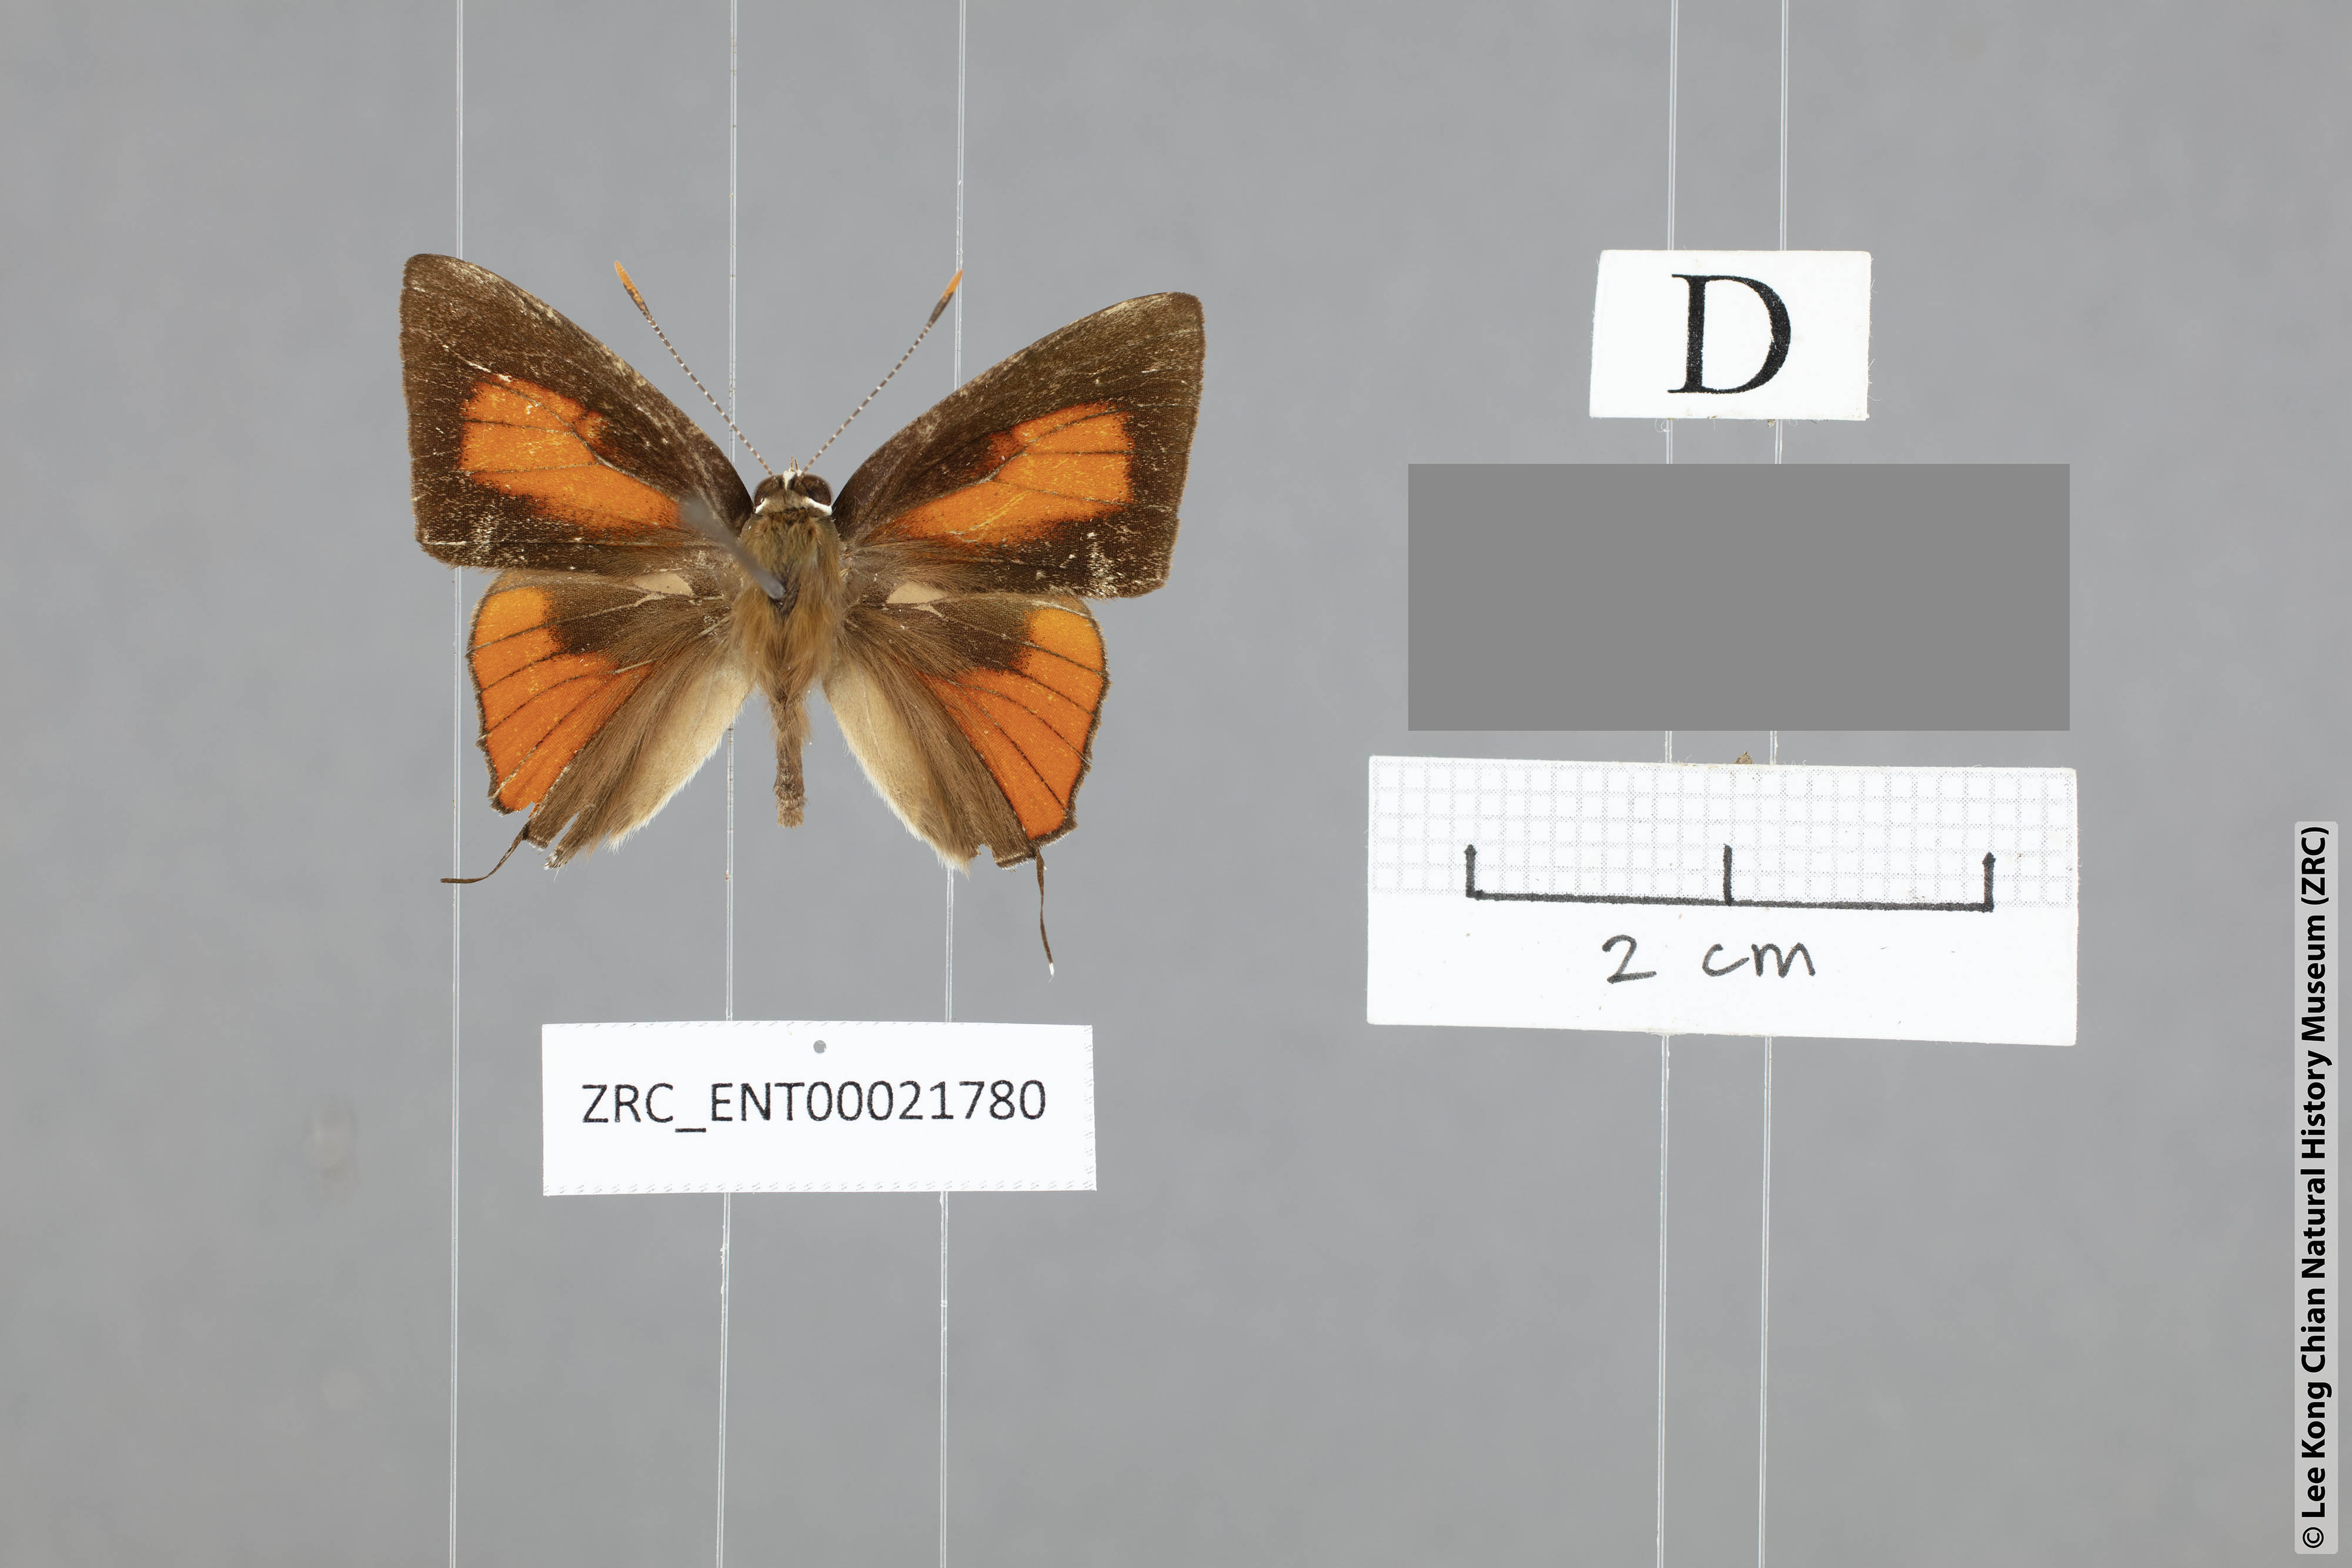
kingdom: Animalia
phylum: Arthropoda
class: Insecta
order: Lepidoptera
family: Lycaenidae
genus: Rapala
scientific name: Rapala cowani
